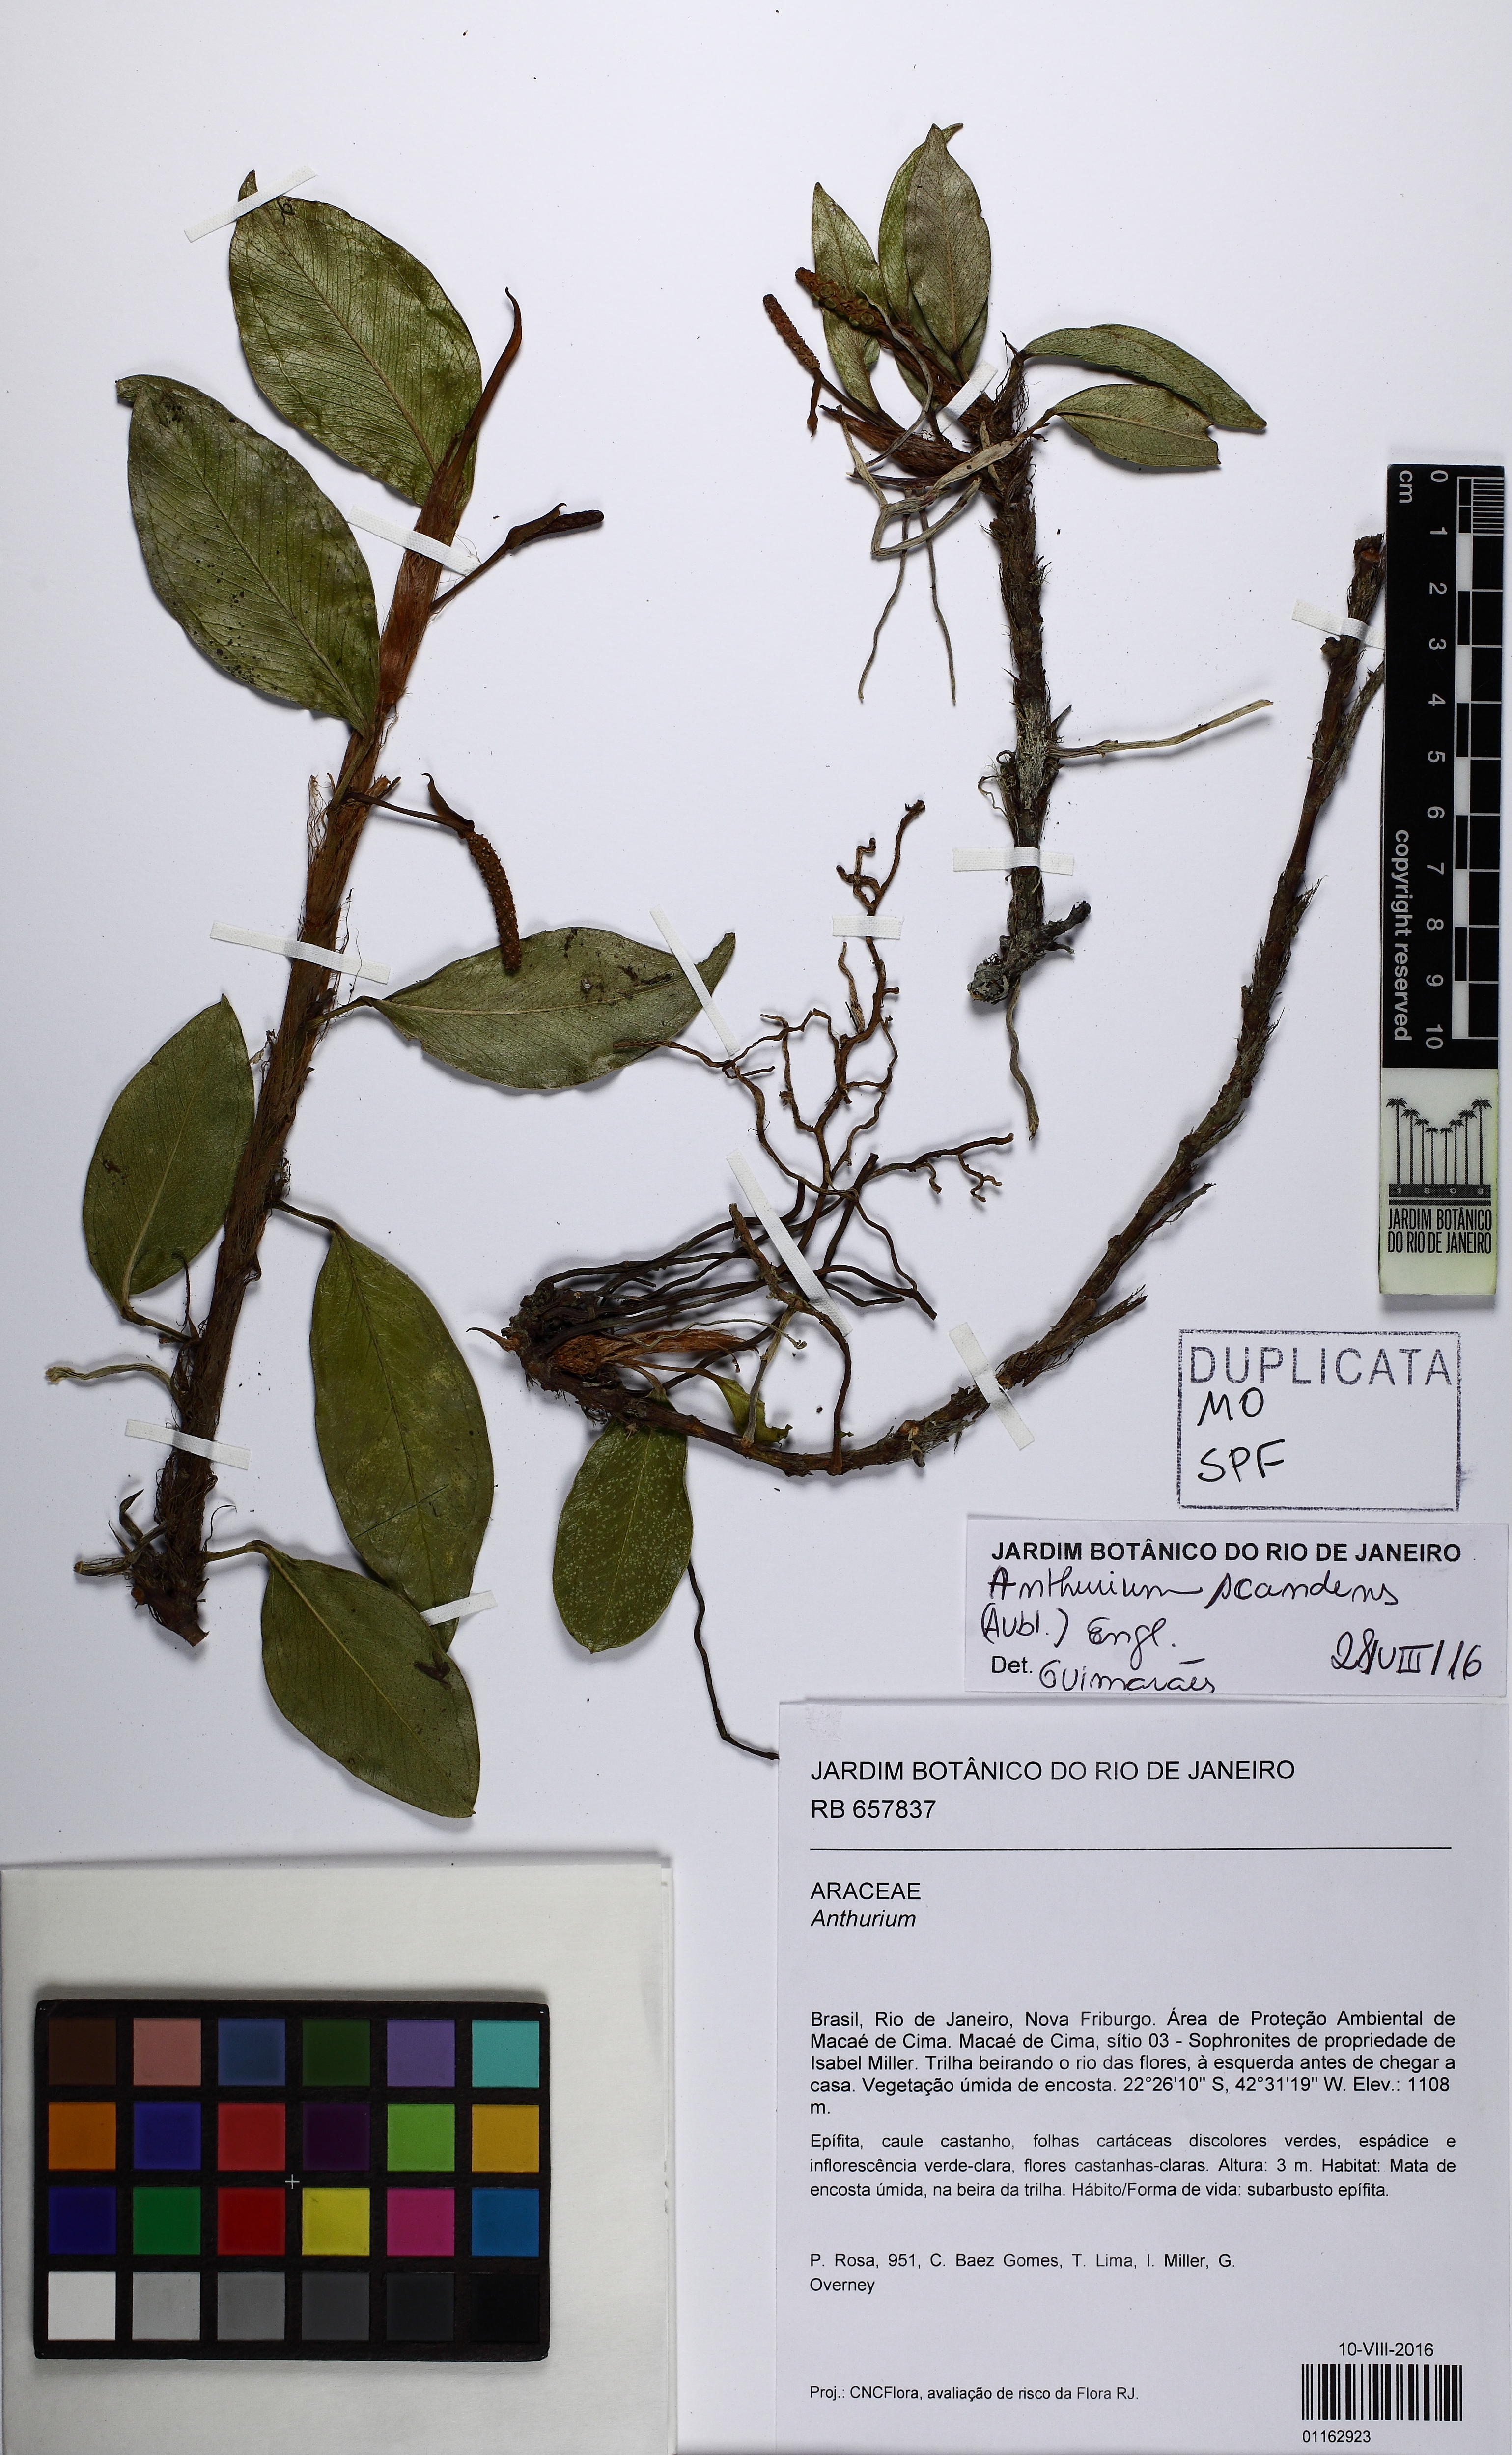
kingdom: Plantae
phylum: Tracheophyta
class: Liliopsida
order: Alismatales
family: Araceae
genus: Anthurium
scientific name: Anthurium scandens
